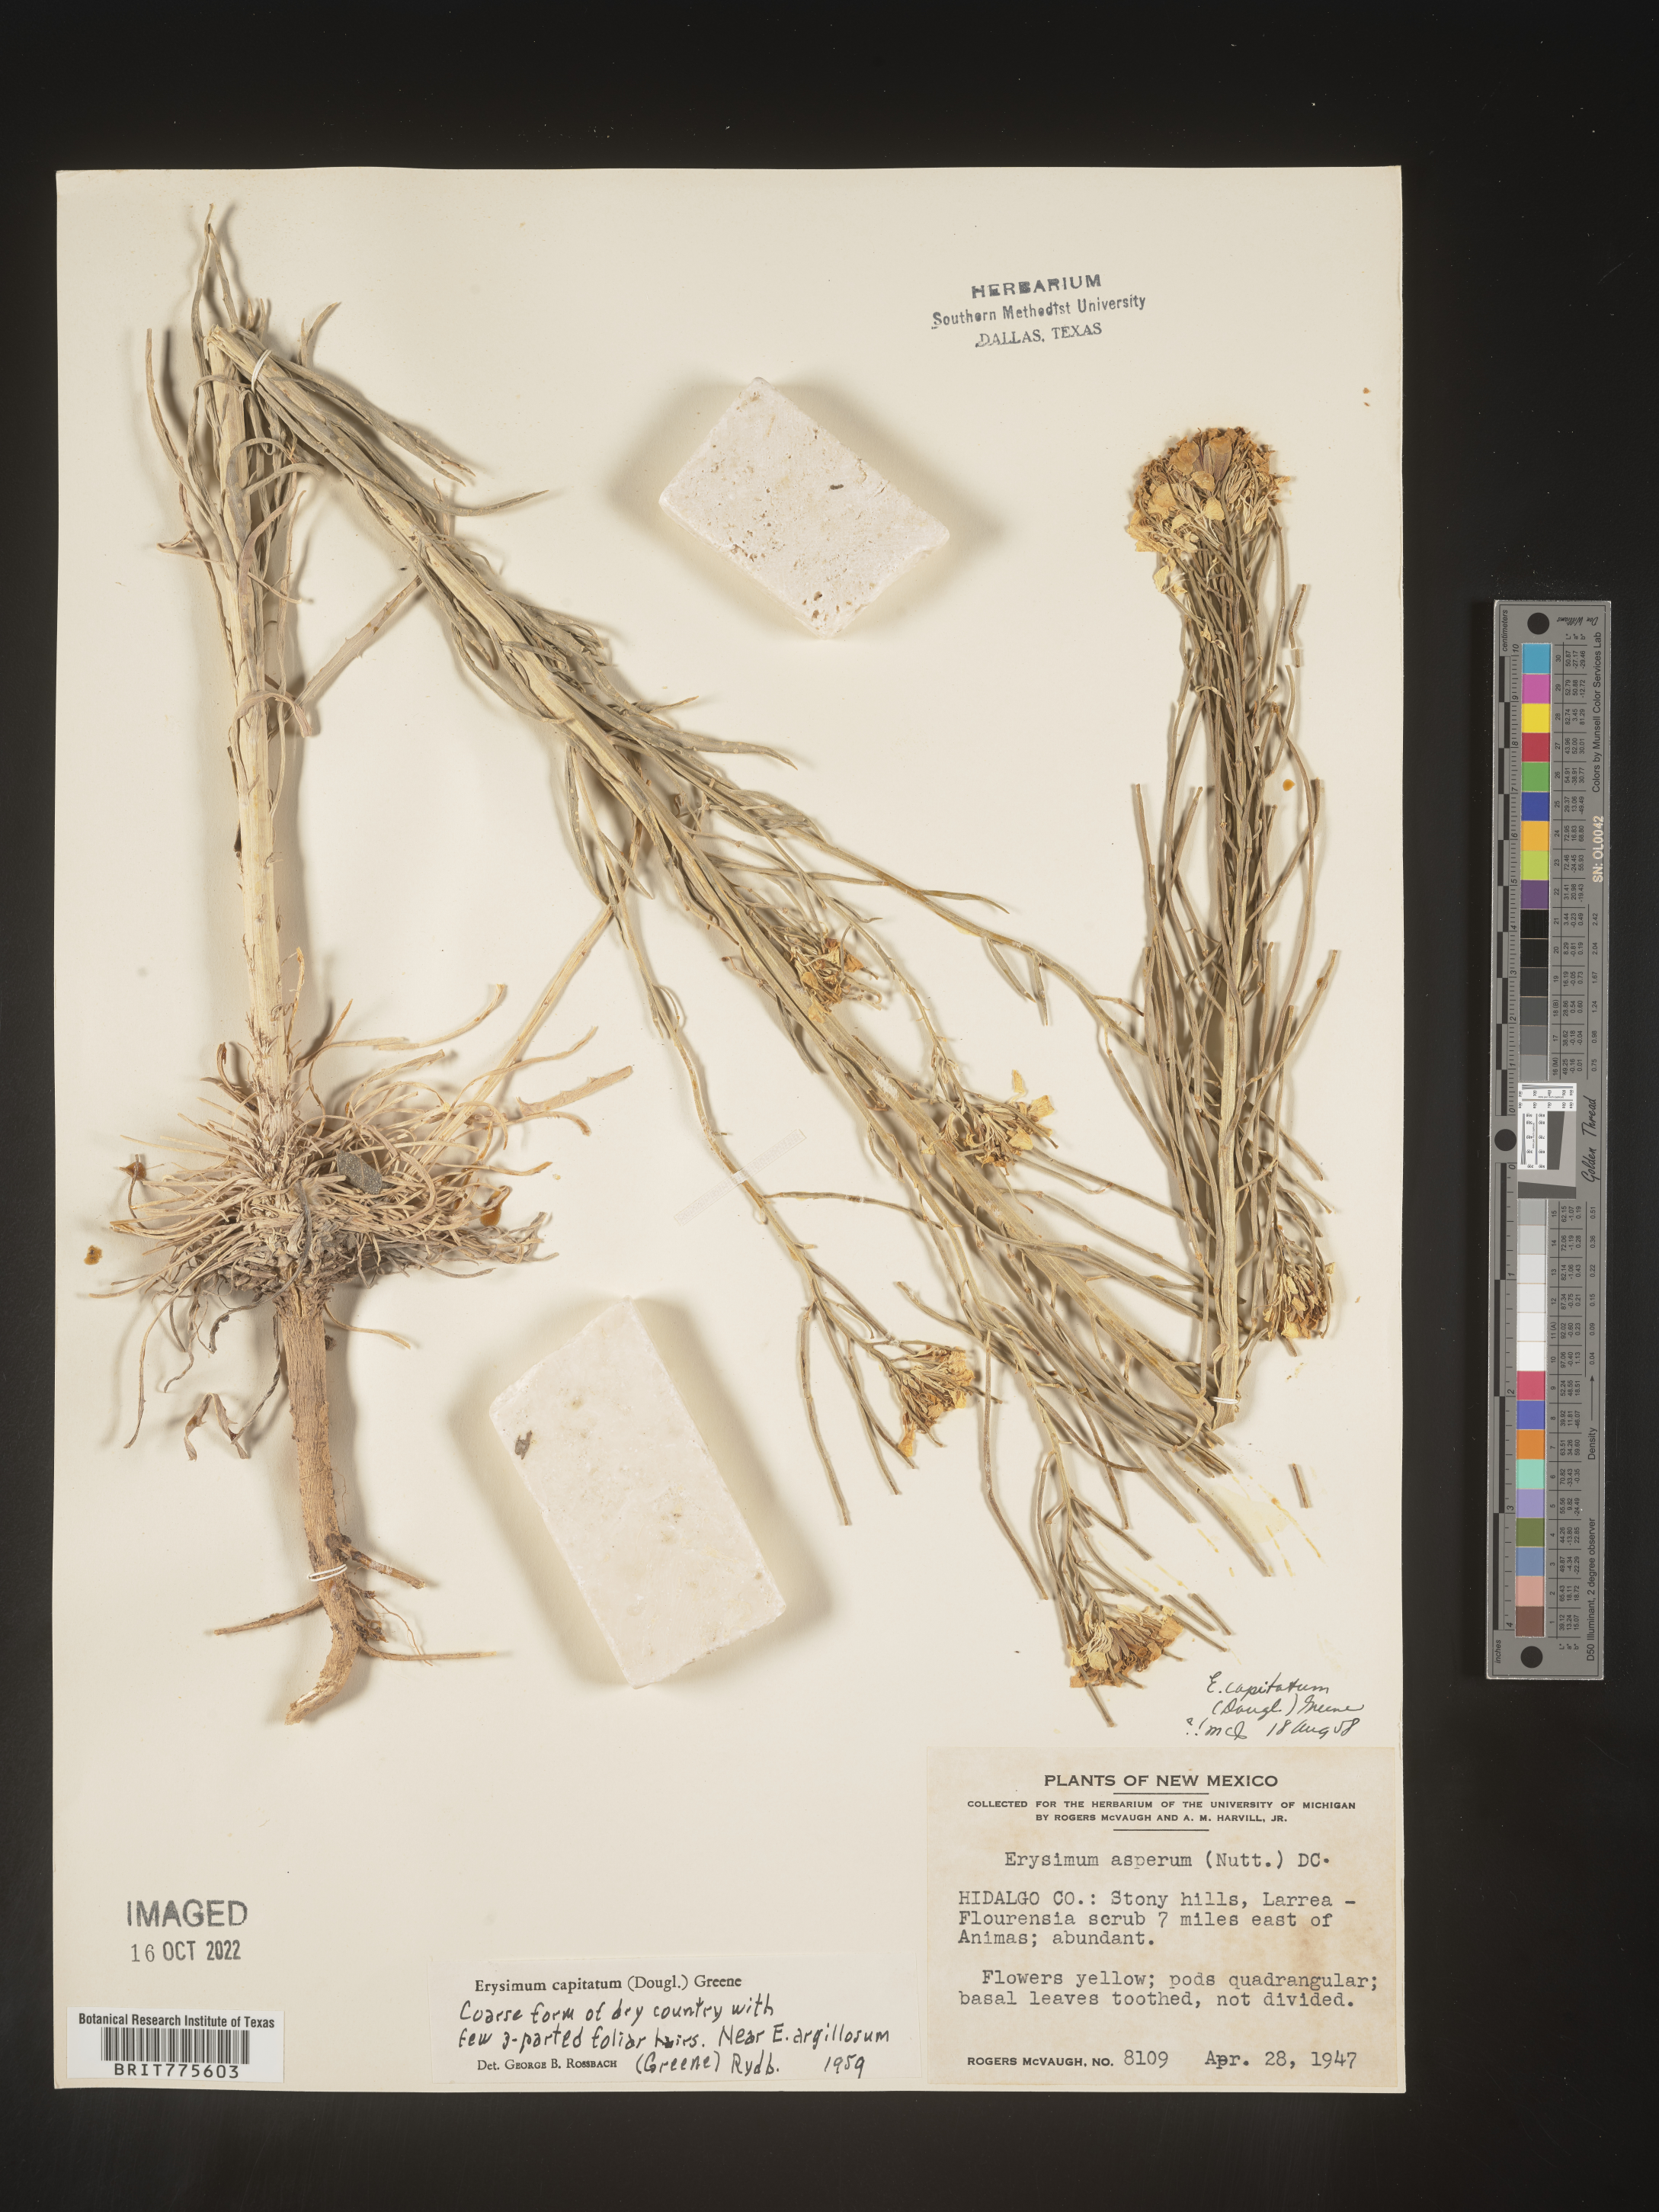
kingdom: Plantae
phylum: Tracheophyta
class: Magnoliopsida
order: Brassicales
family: Brassicaceae
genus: Erysimum
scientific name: Erysimum capitatum
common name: Western wallflower
